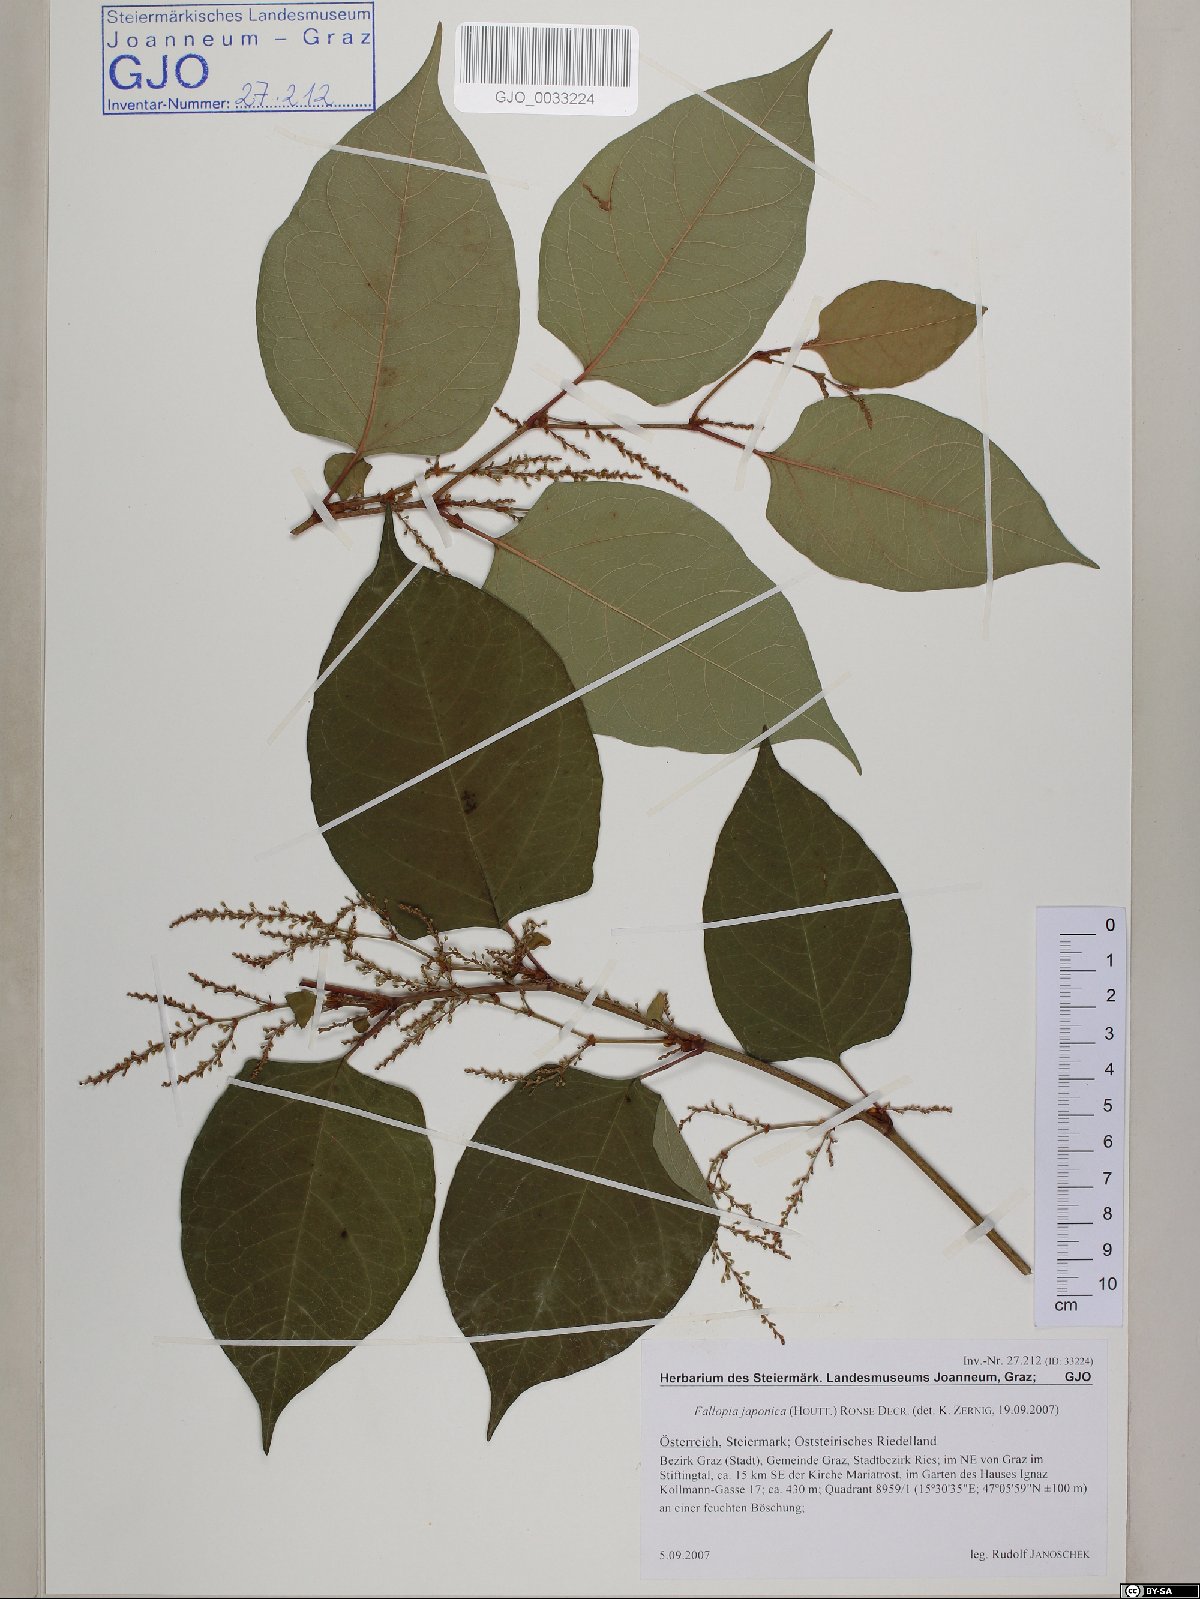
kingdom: Plantae
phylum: Tracheophyta
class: Magnoliopsida
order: Caryophyllales
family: Polygonaceae
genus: Reynoutria
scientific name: Reynoutria japonica
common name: Japanese knotweed
